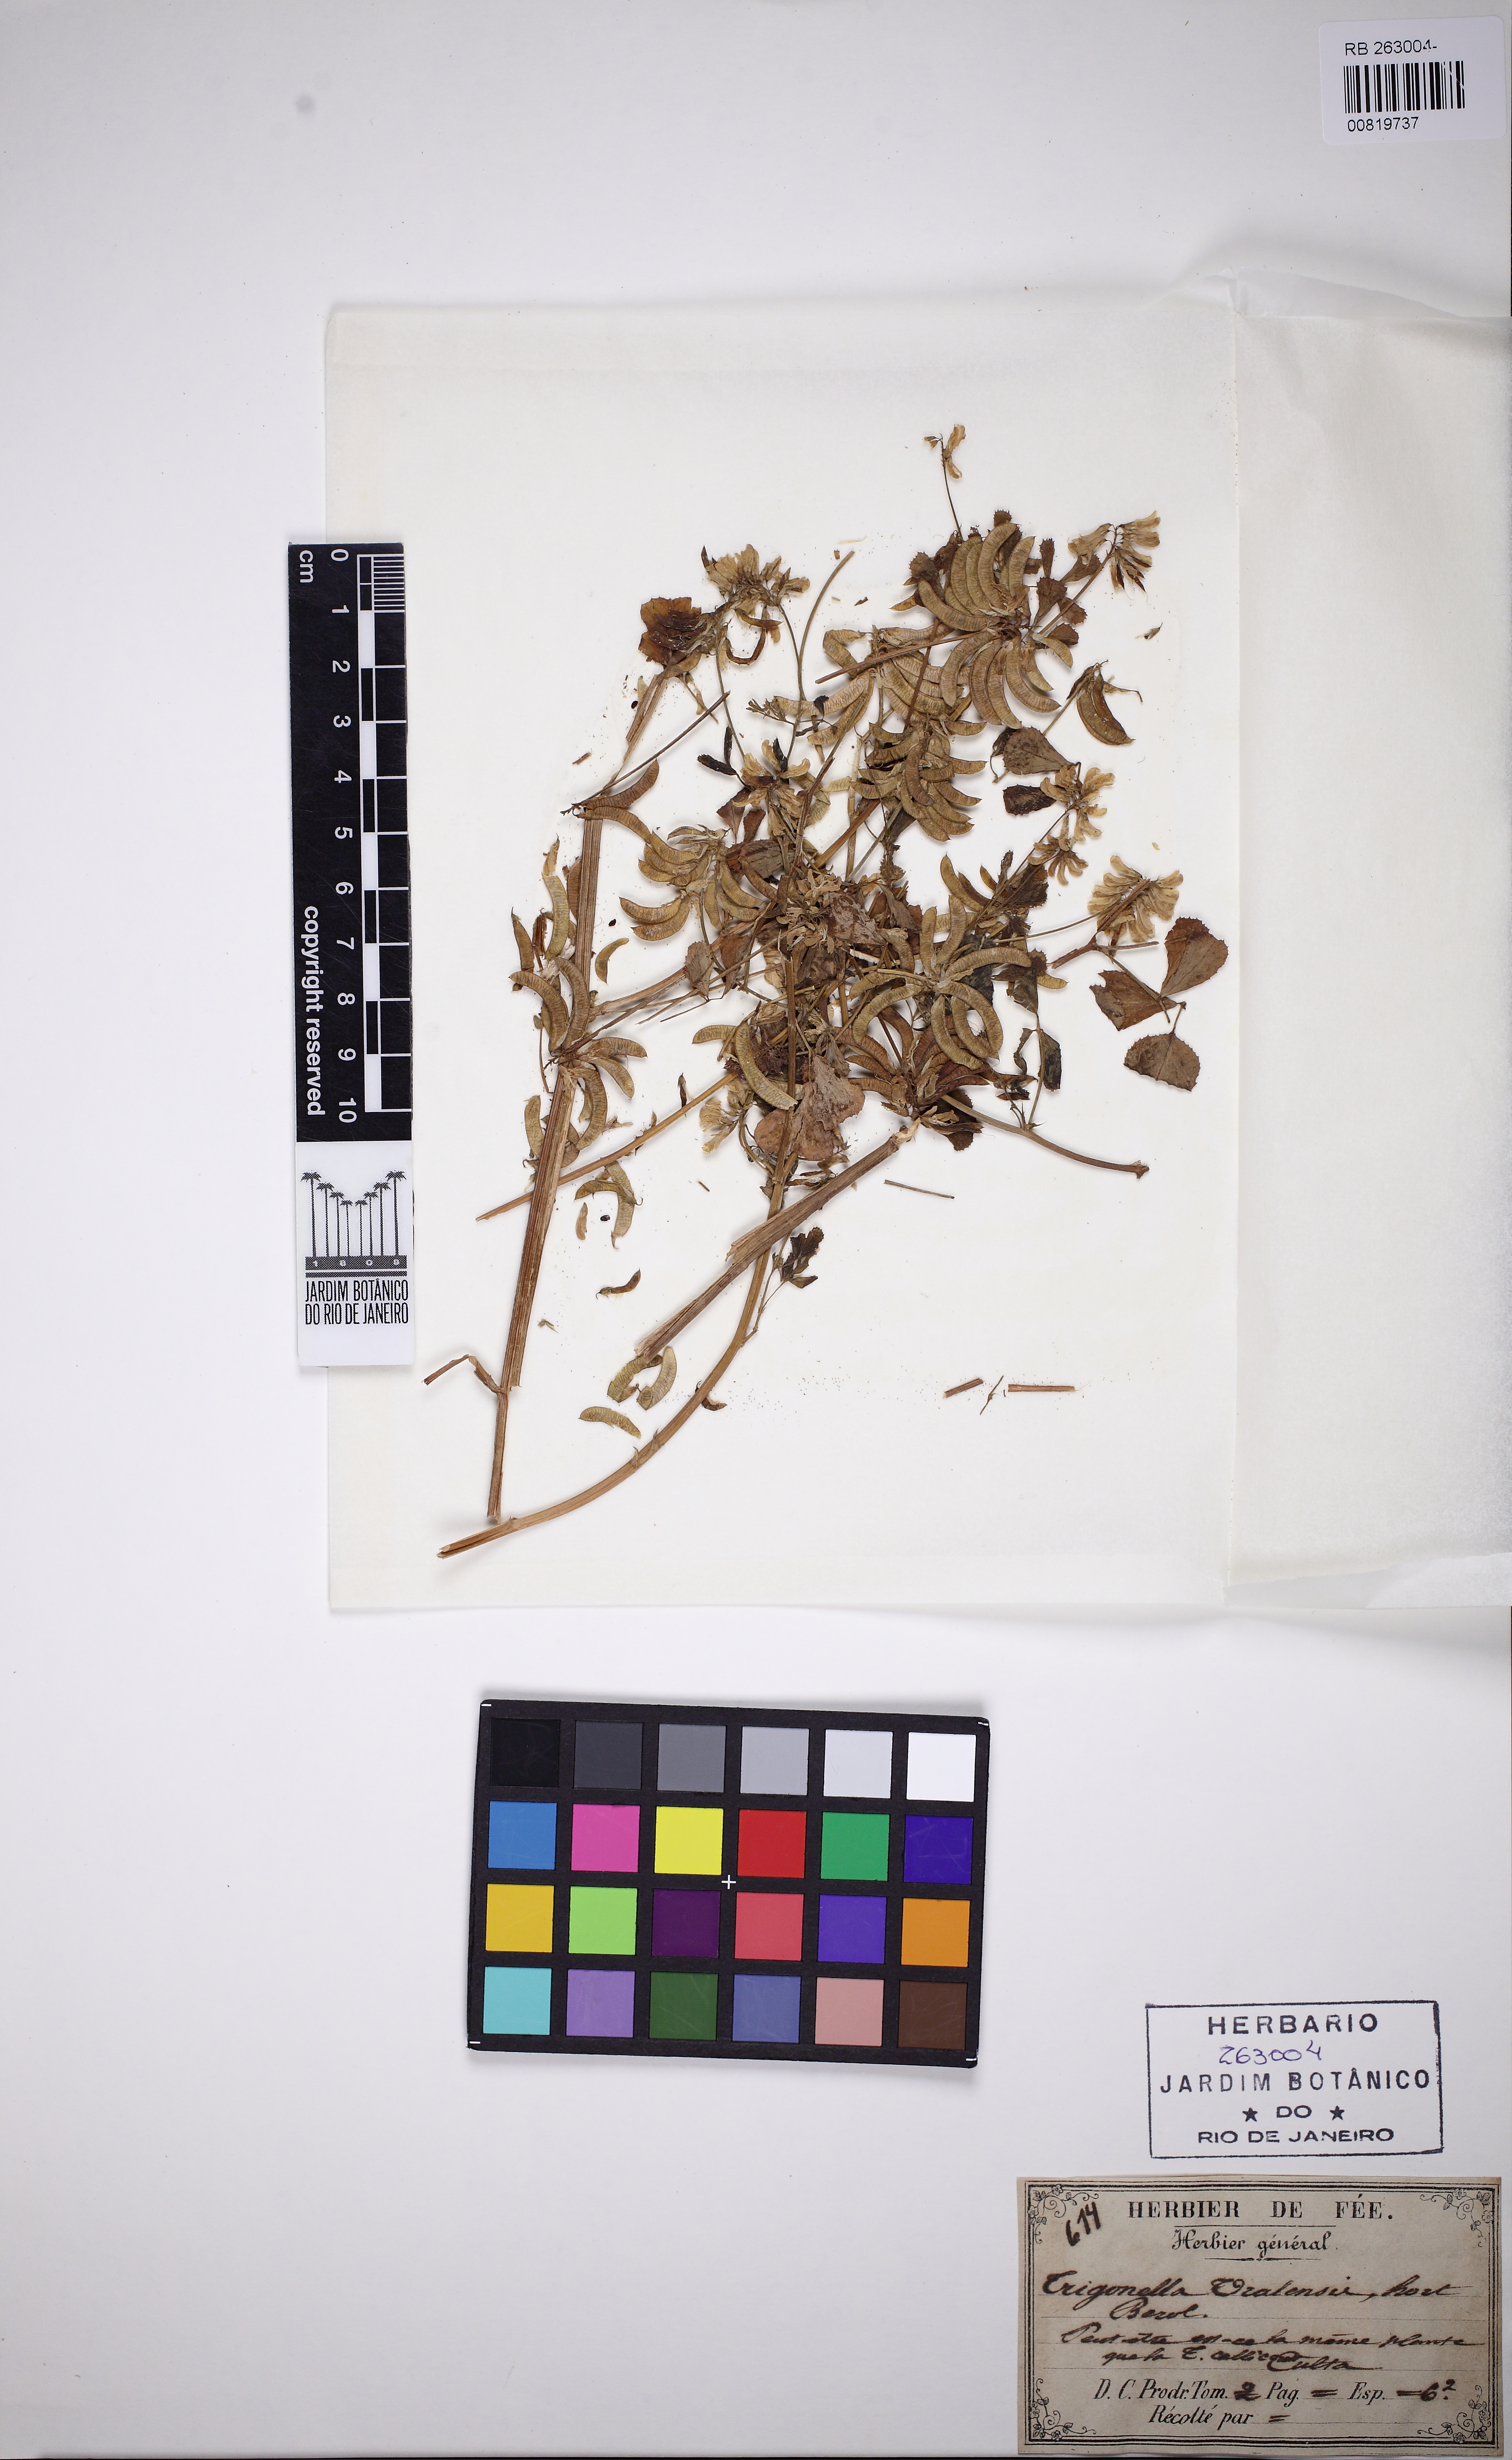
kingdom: Plantae
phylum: Tracheophyta
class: Magnoliopsida
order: Fabales
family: Fabaceae
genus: Trigonella
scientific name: Trigonella
